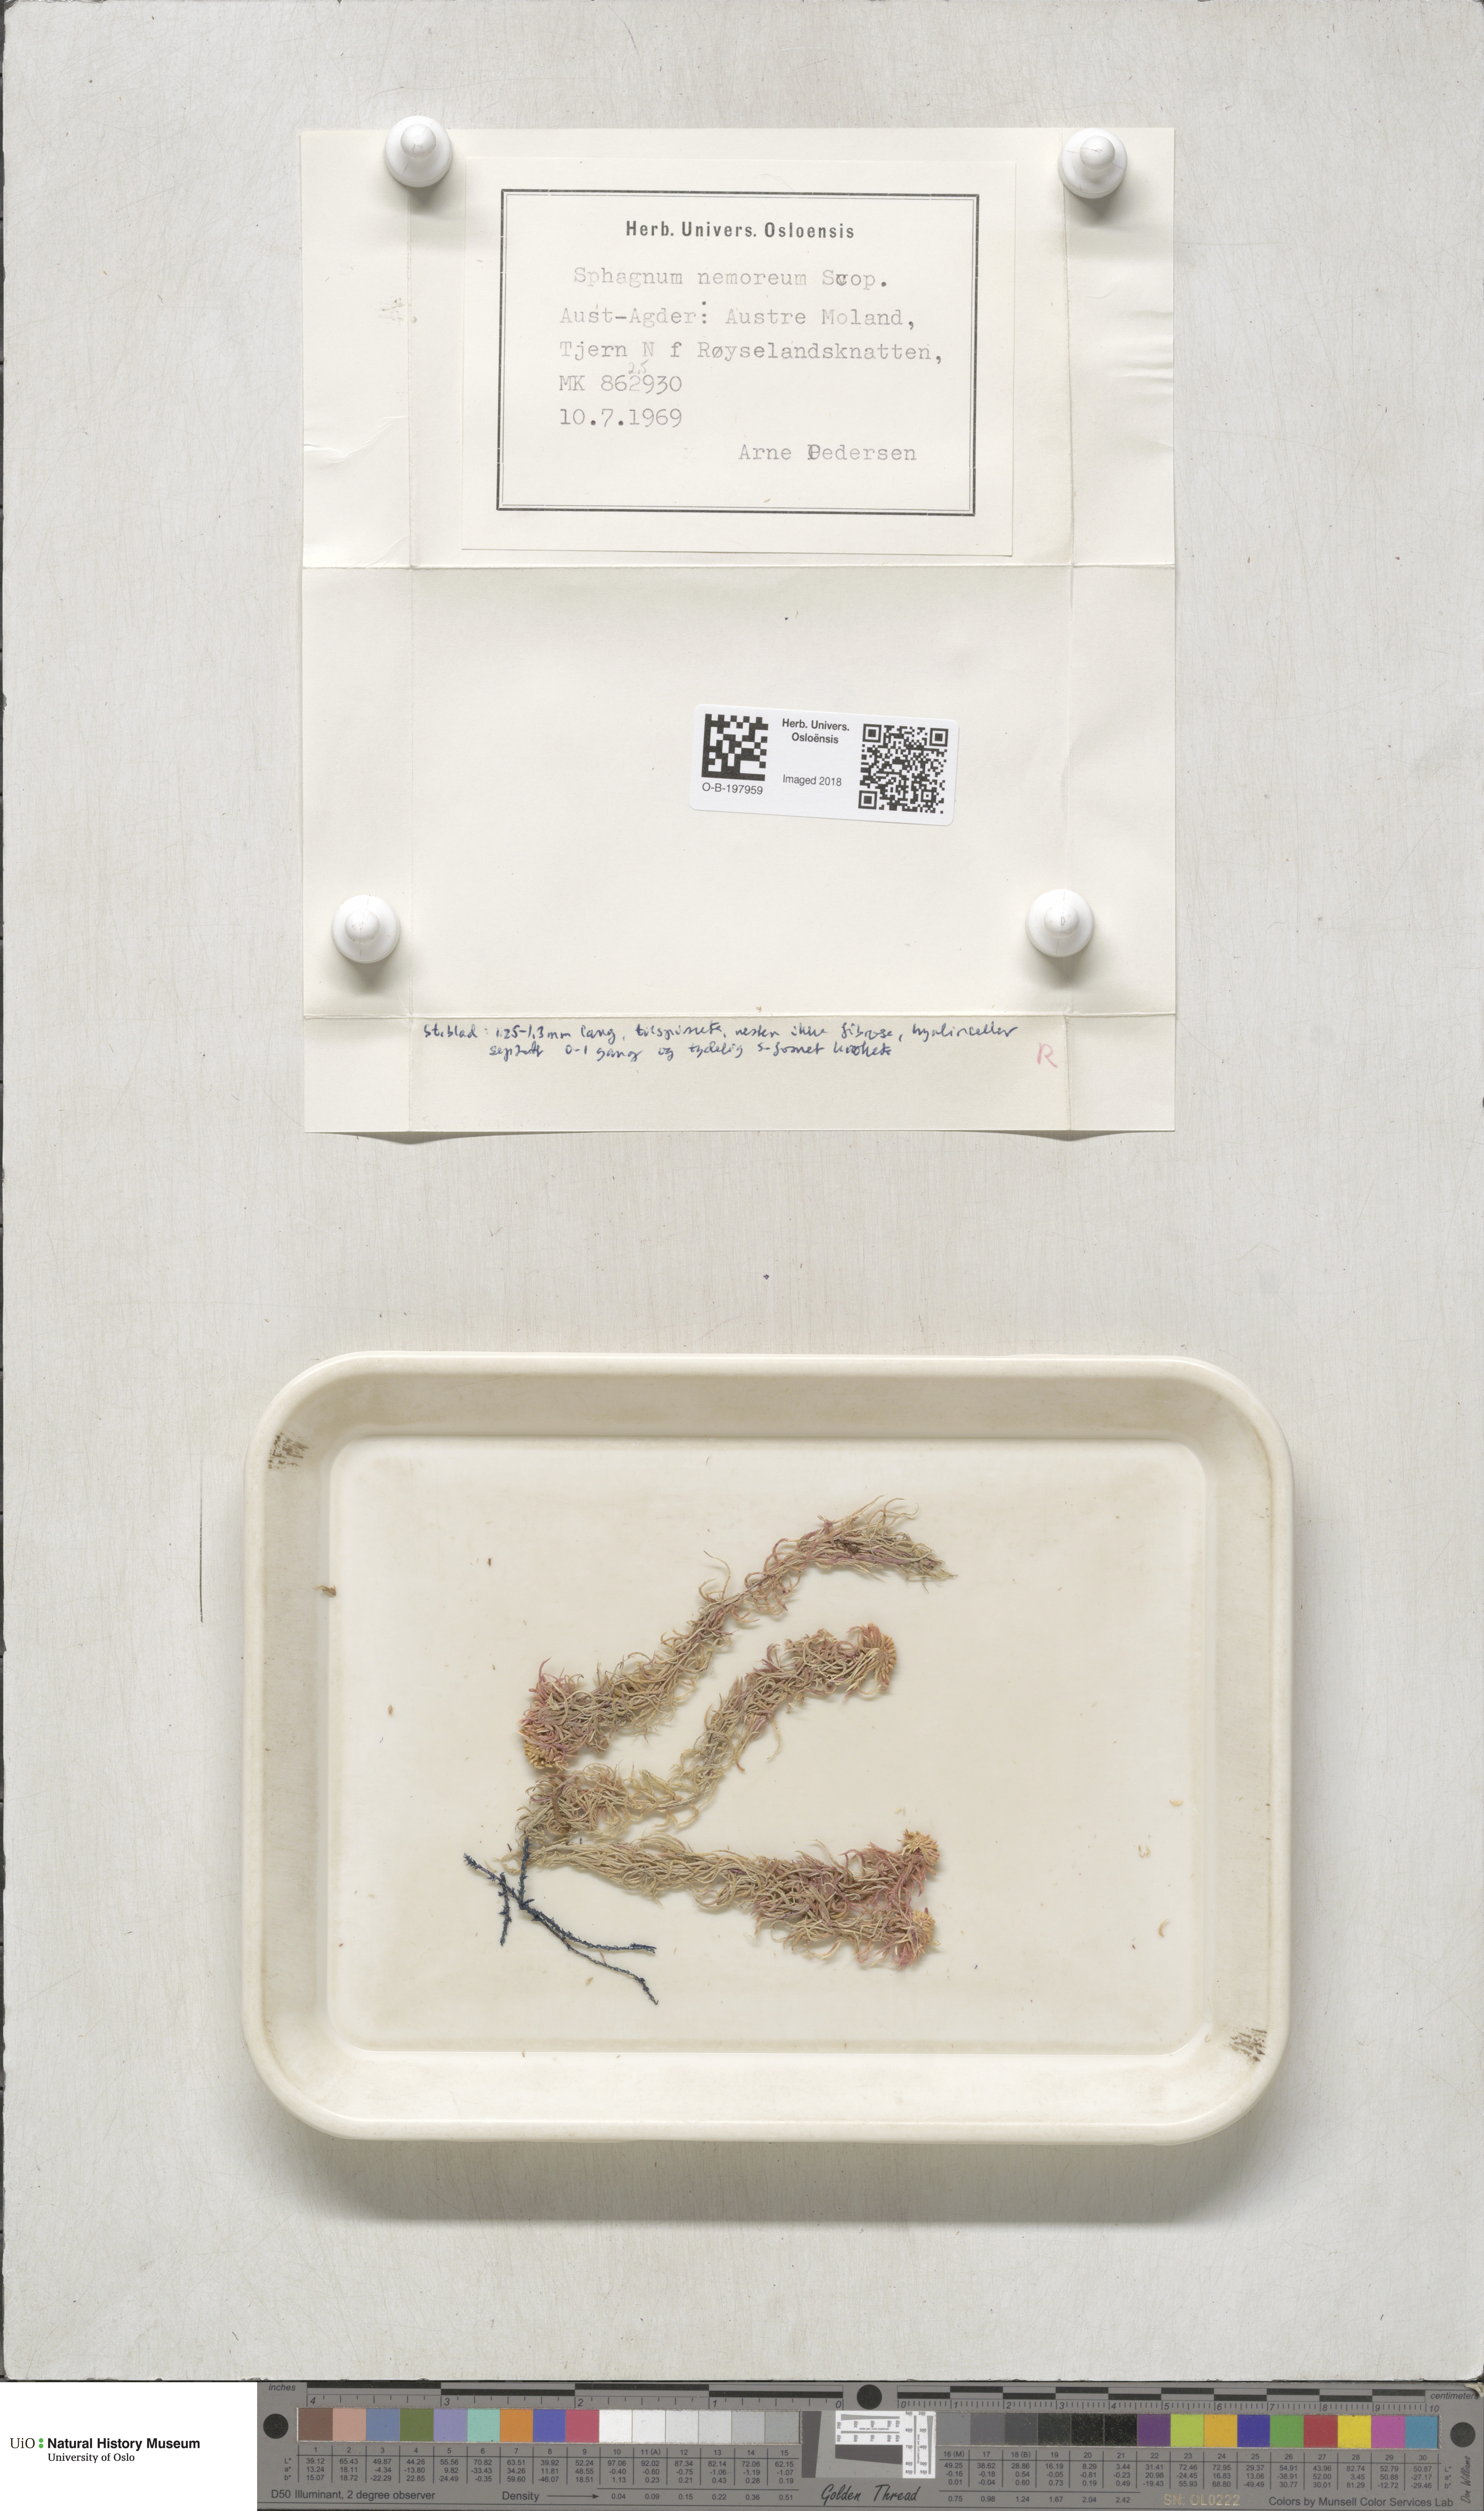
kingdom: Plantae
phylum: Bryophyta
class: Sphagnopsida
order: Sphagnales
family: Sphagnaceae
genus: Sphagnum
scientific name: Sphagnum capillifolium
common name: Small red peat moss
